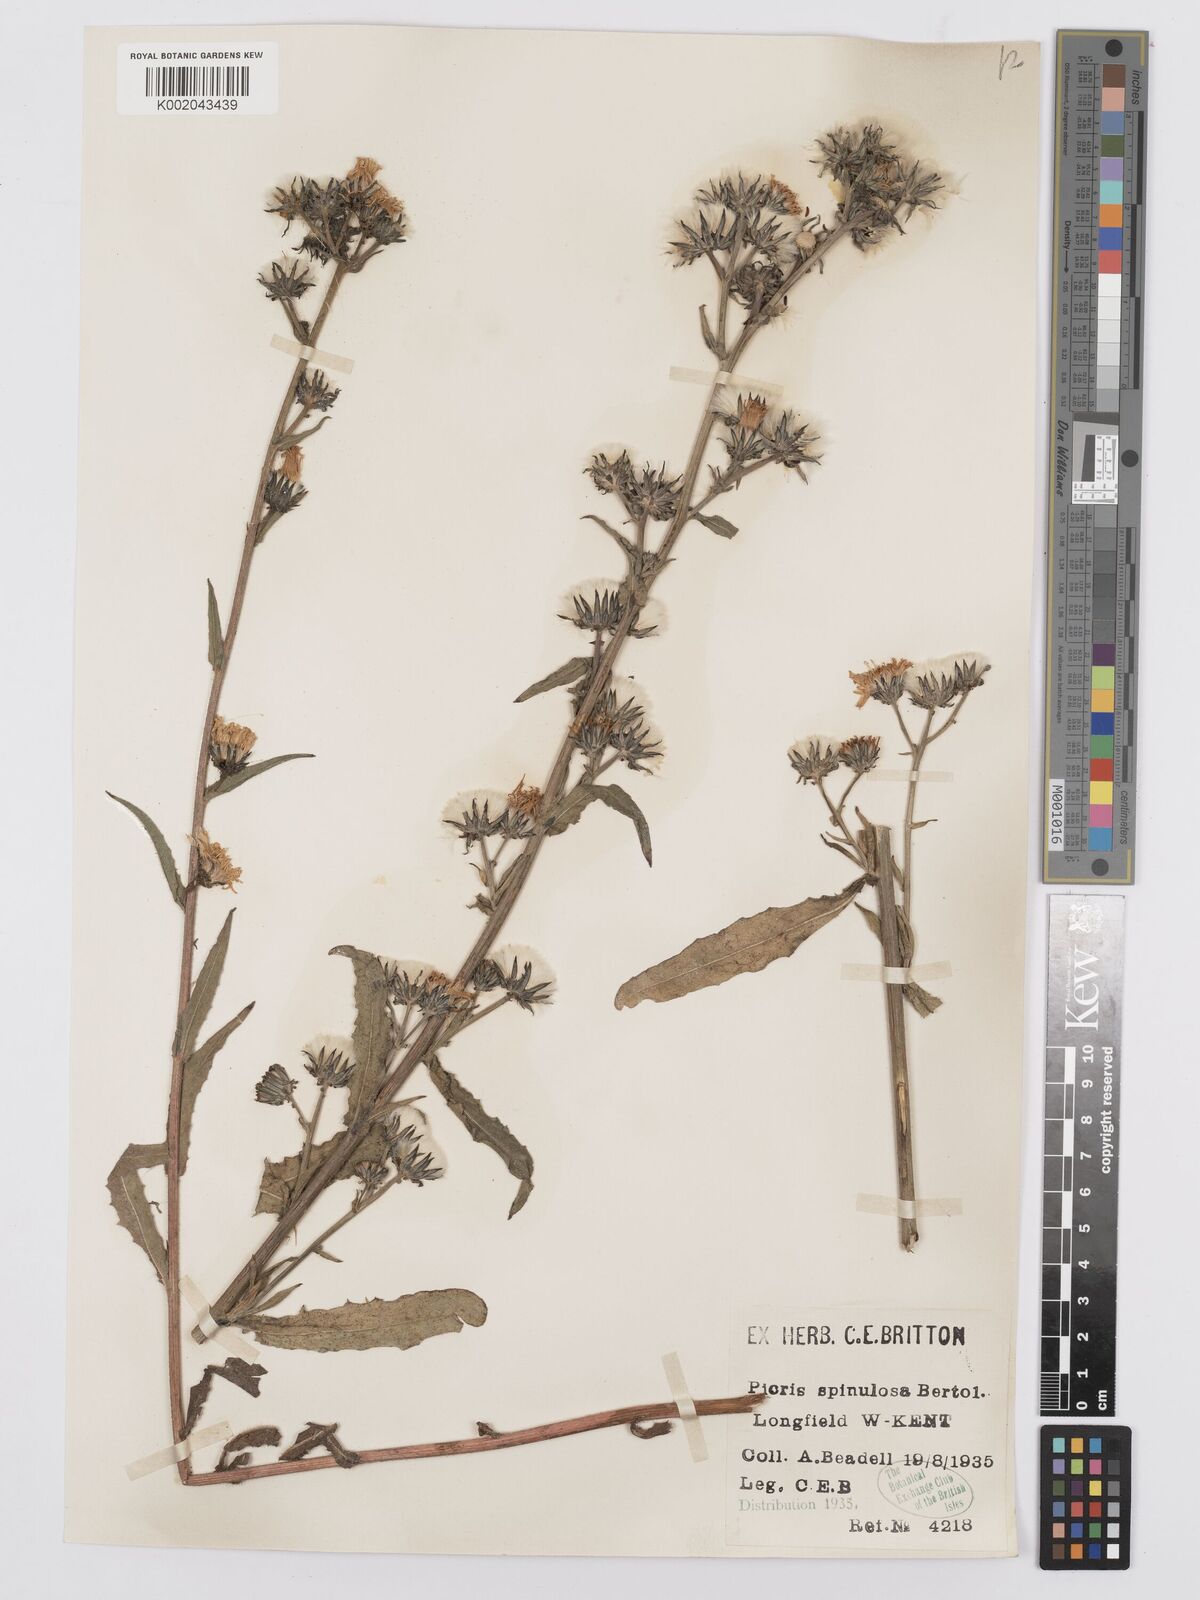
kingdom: Plantae
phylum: Tracheophyta
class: Magnoliopsida
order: Asterales
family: Asteraceae
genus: Picris
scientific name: Picris hieracioides
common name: Hawkweed oxtongue
